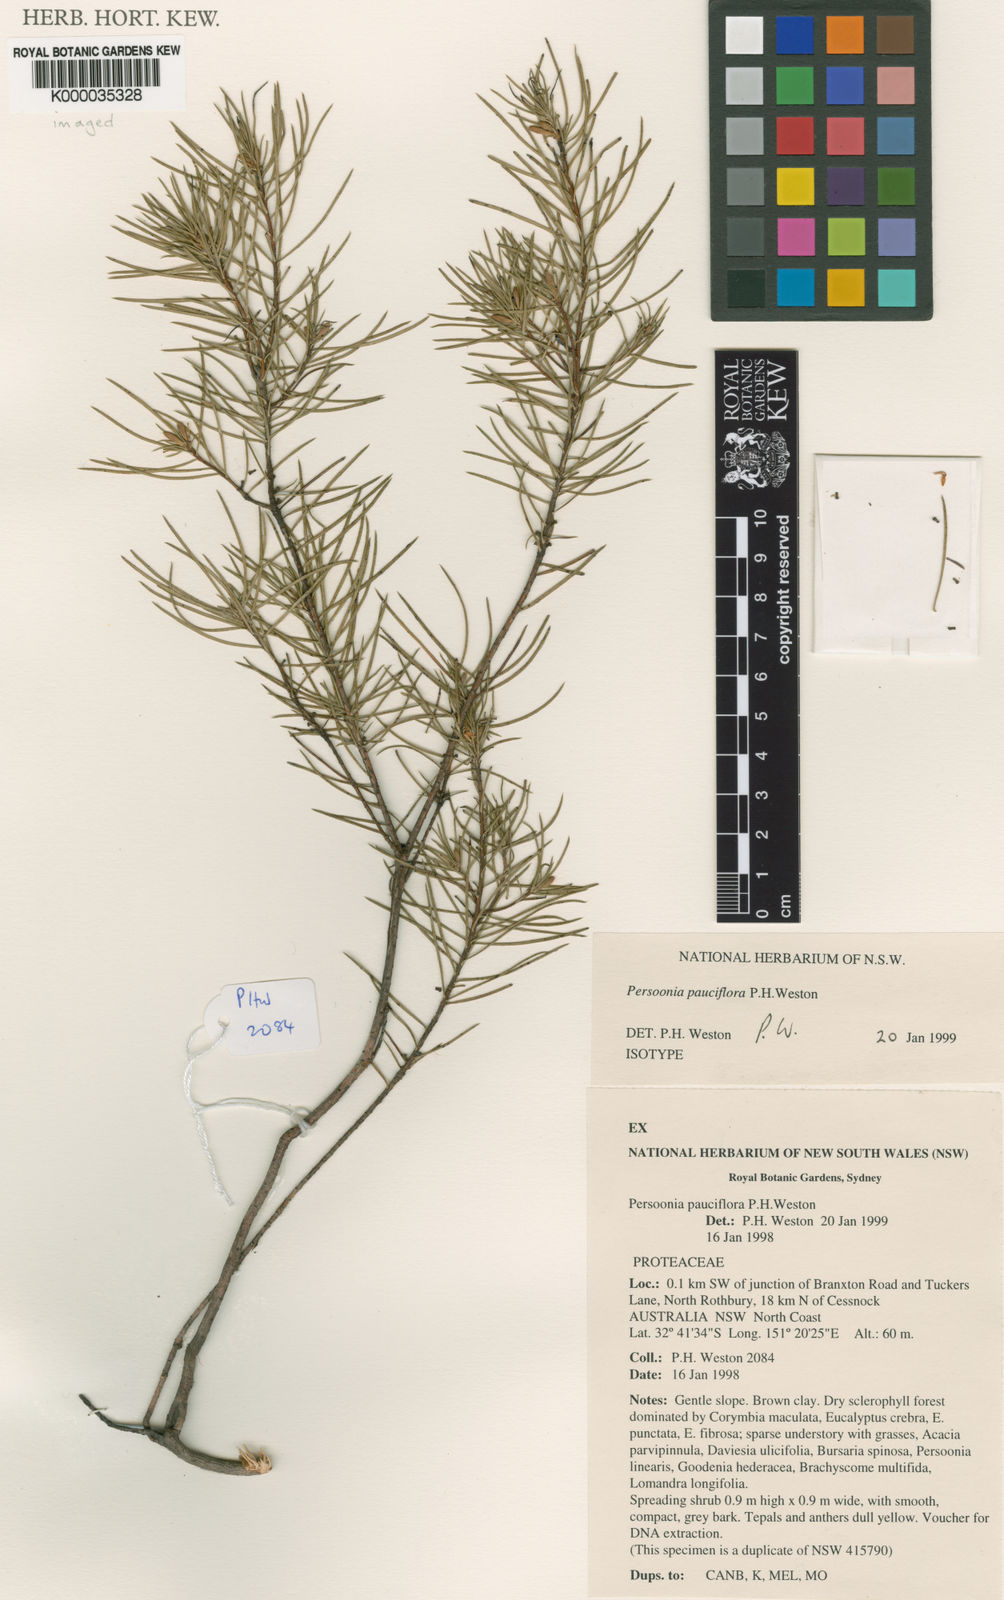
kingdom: Plantae
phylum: Tracheophyta
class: Magnoliopsida
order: Proteales
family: Proteaceae
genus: Persoonia
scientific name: Persoonia pauciflora
